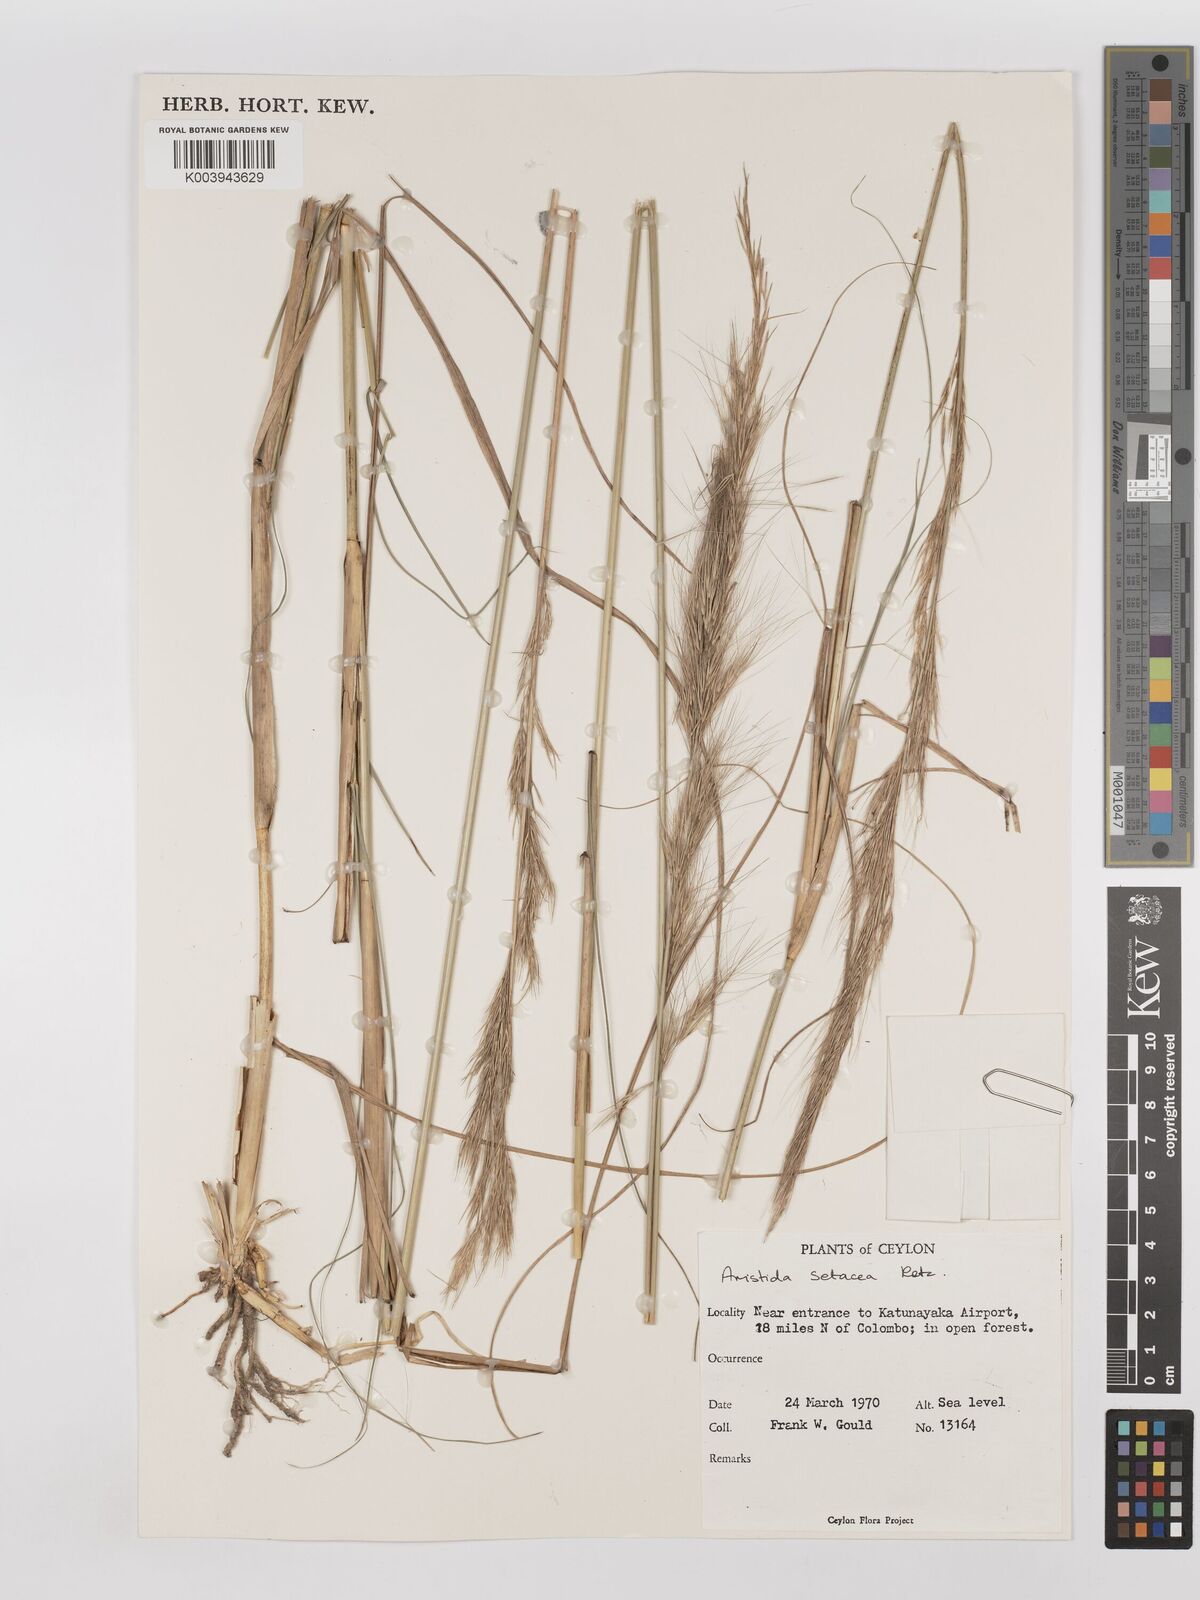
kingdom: Plantae
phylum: Tracheophyta
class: Liliopsida
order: Poales
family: Poaceae
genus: Aristida
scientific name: Aristida setacea
